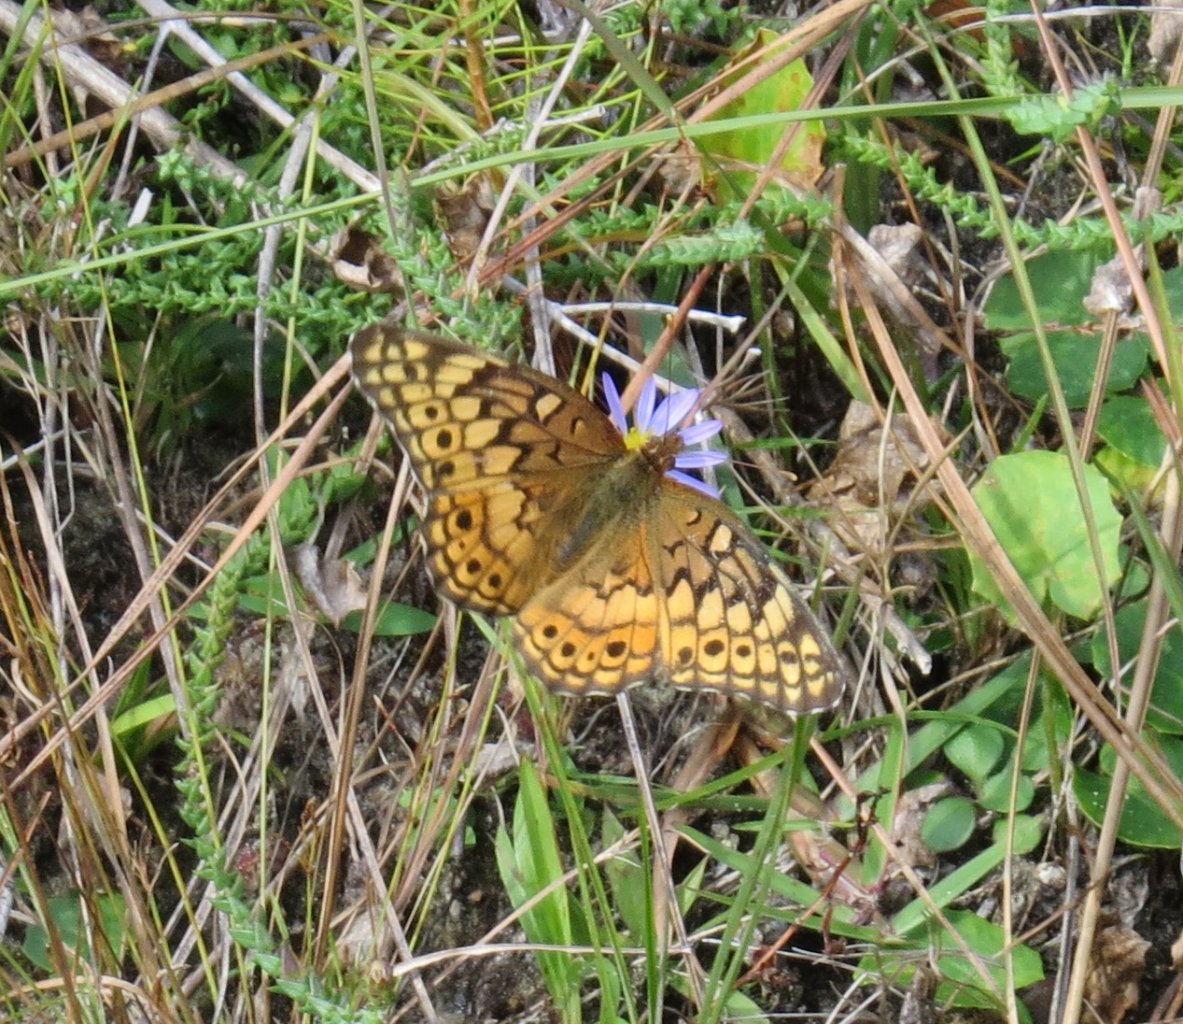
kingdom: Animalia
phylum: Arthropoda
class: Insecta
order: Lepidoptera
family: Nymphalidae
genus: Euptoieta
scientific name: Euptoieta claudia
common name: Variegated Fritillary
